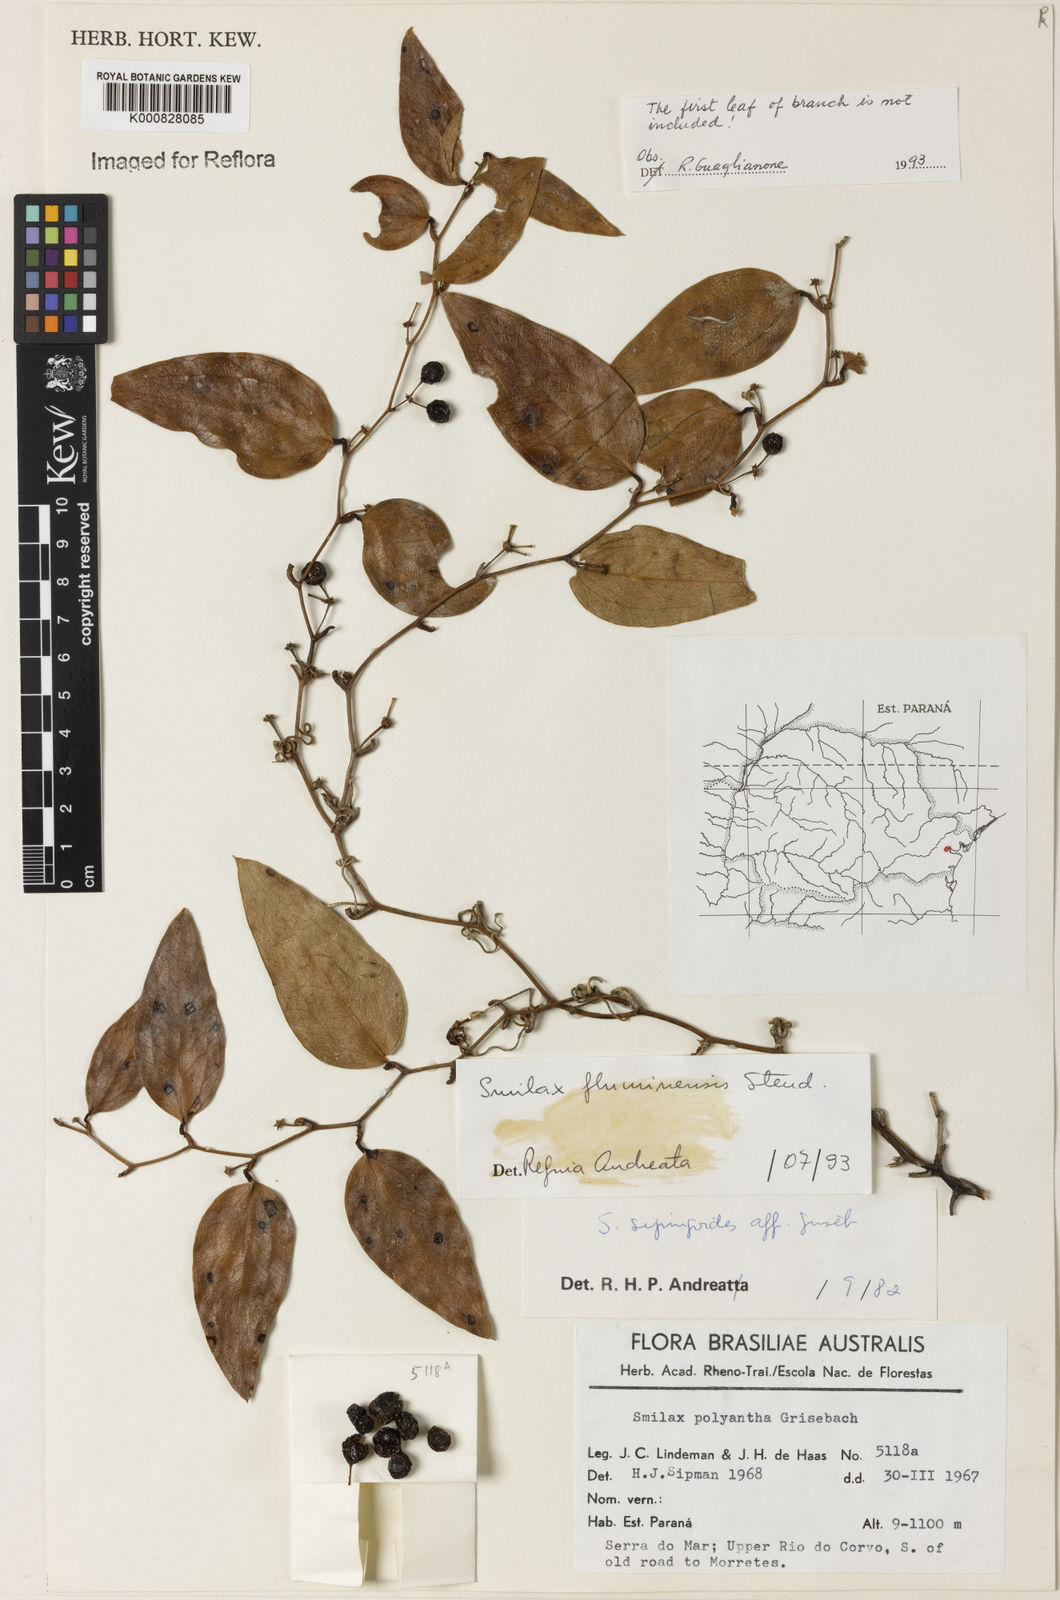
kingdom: Plantae
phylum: Tracheophyta
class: Liliopsida
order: Liliales
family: Smilacaceae
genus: Smilax
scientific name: Smilax fluminensis
